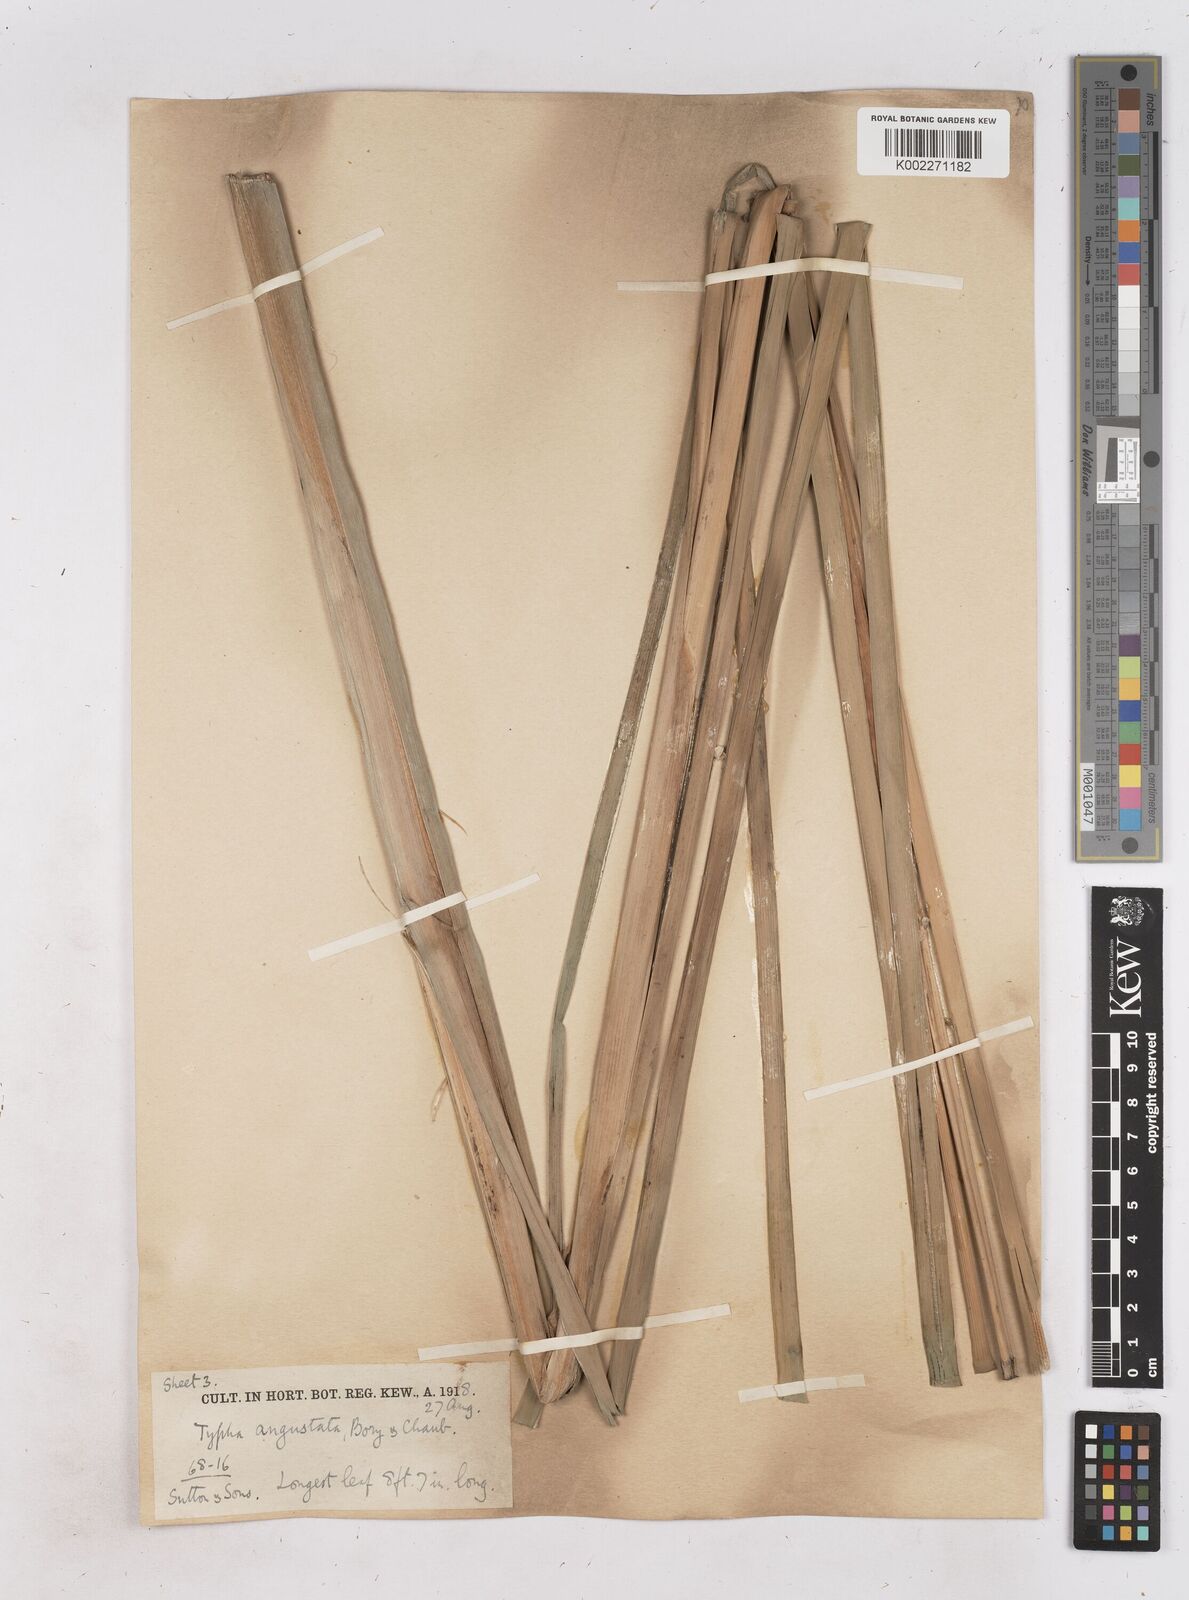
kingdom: Plantae
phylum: Tracheophyta
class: Liliopsida
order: Poales
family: Typhaceae
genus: Typha
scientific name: Typha domingensis
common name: Southern cattail
